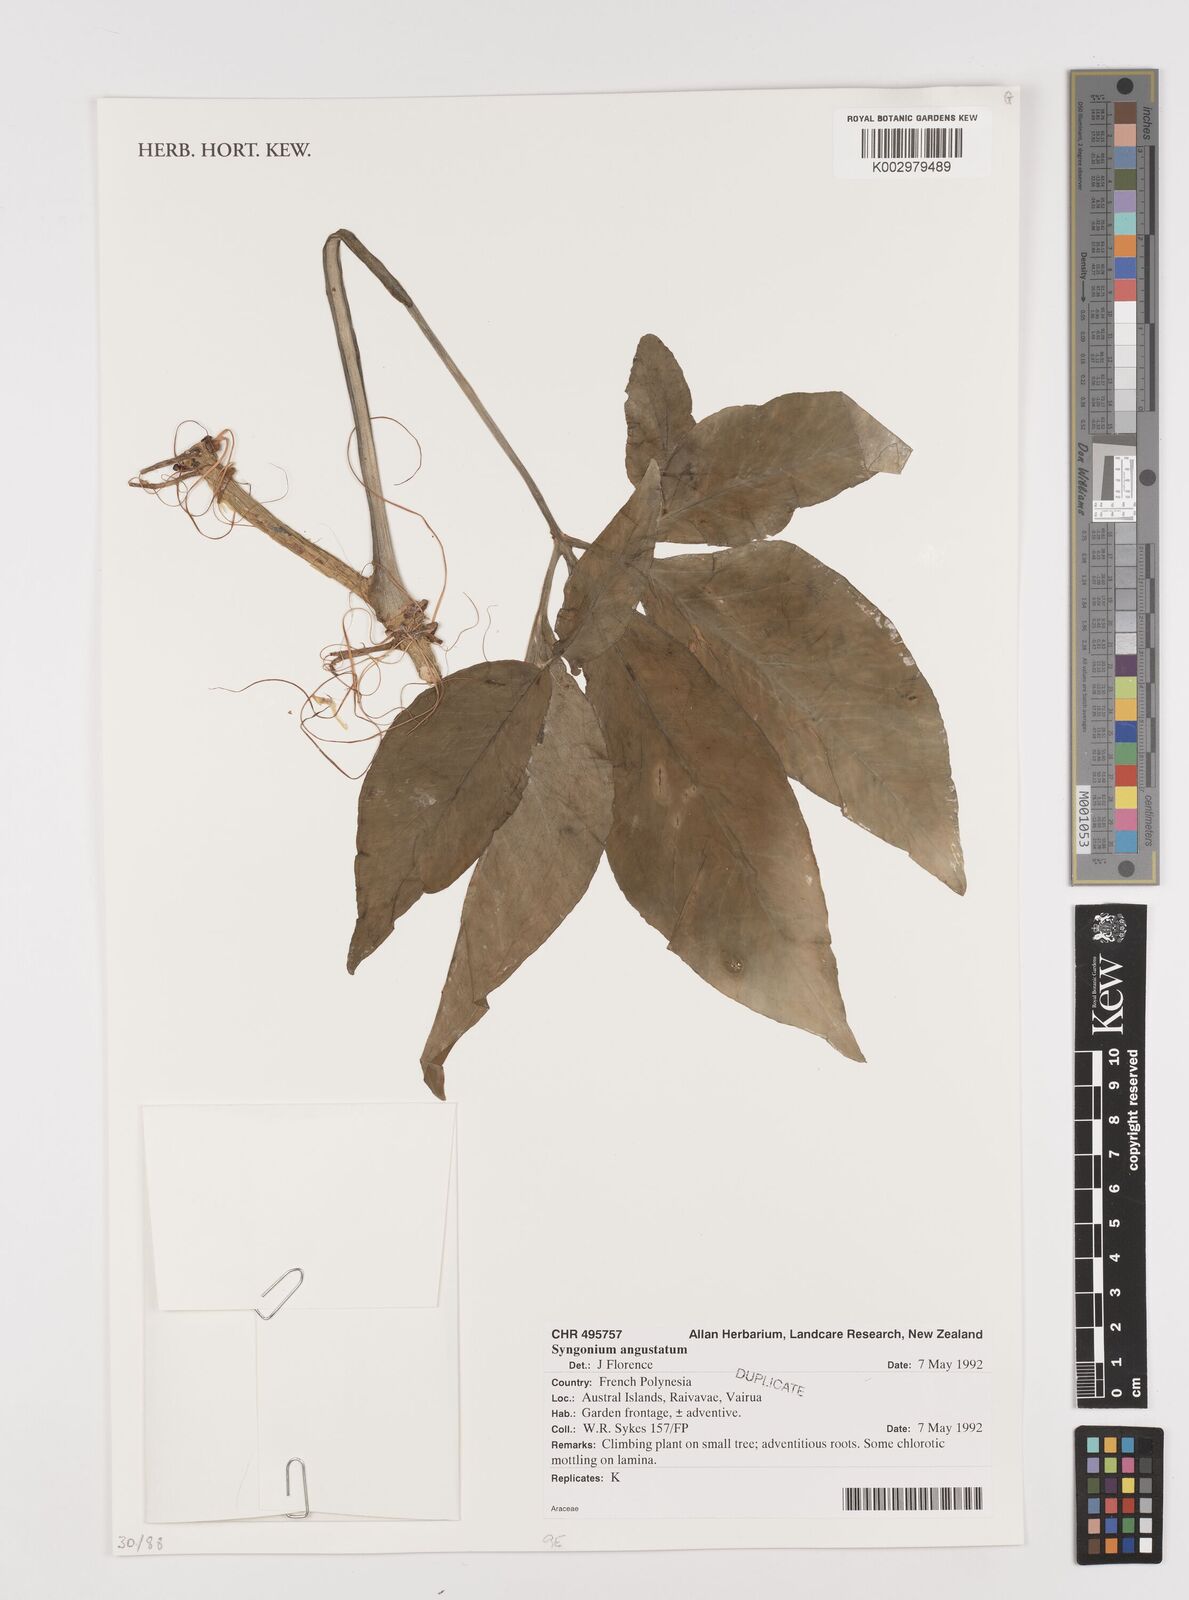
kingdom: Plantae
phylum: Tracheophyta
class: Liliopsida
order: Alismatales
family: Araceae
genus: Syngonium
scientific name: Syngonium angustatum
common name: Fivefingers
